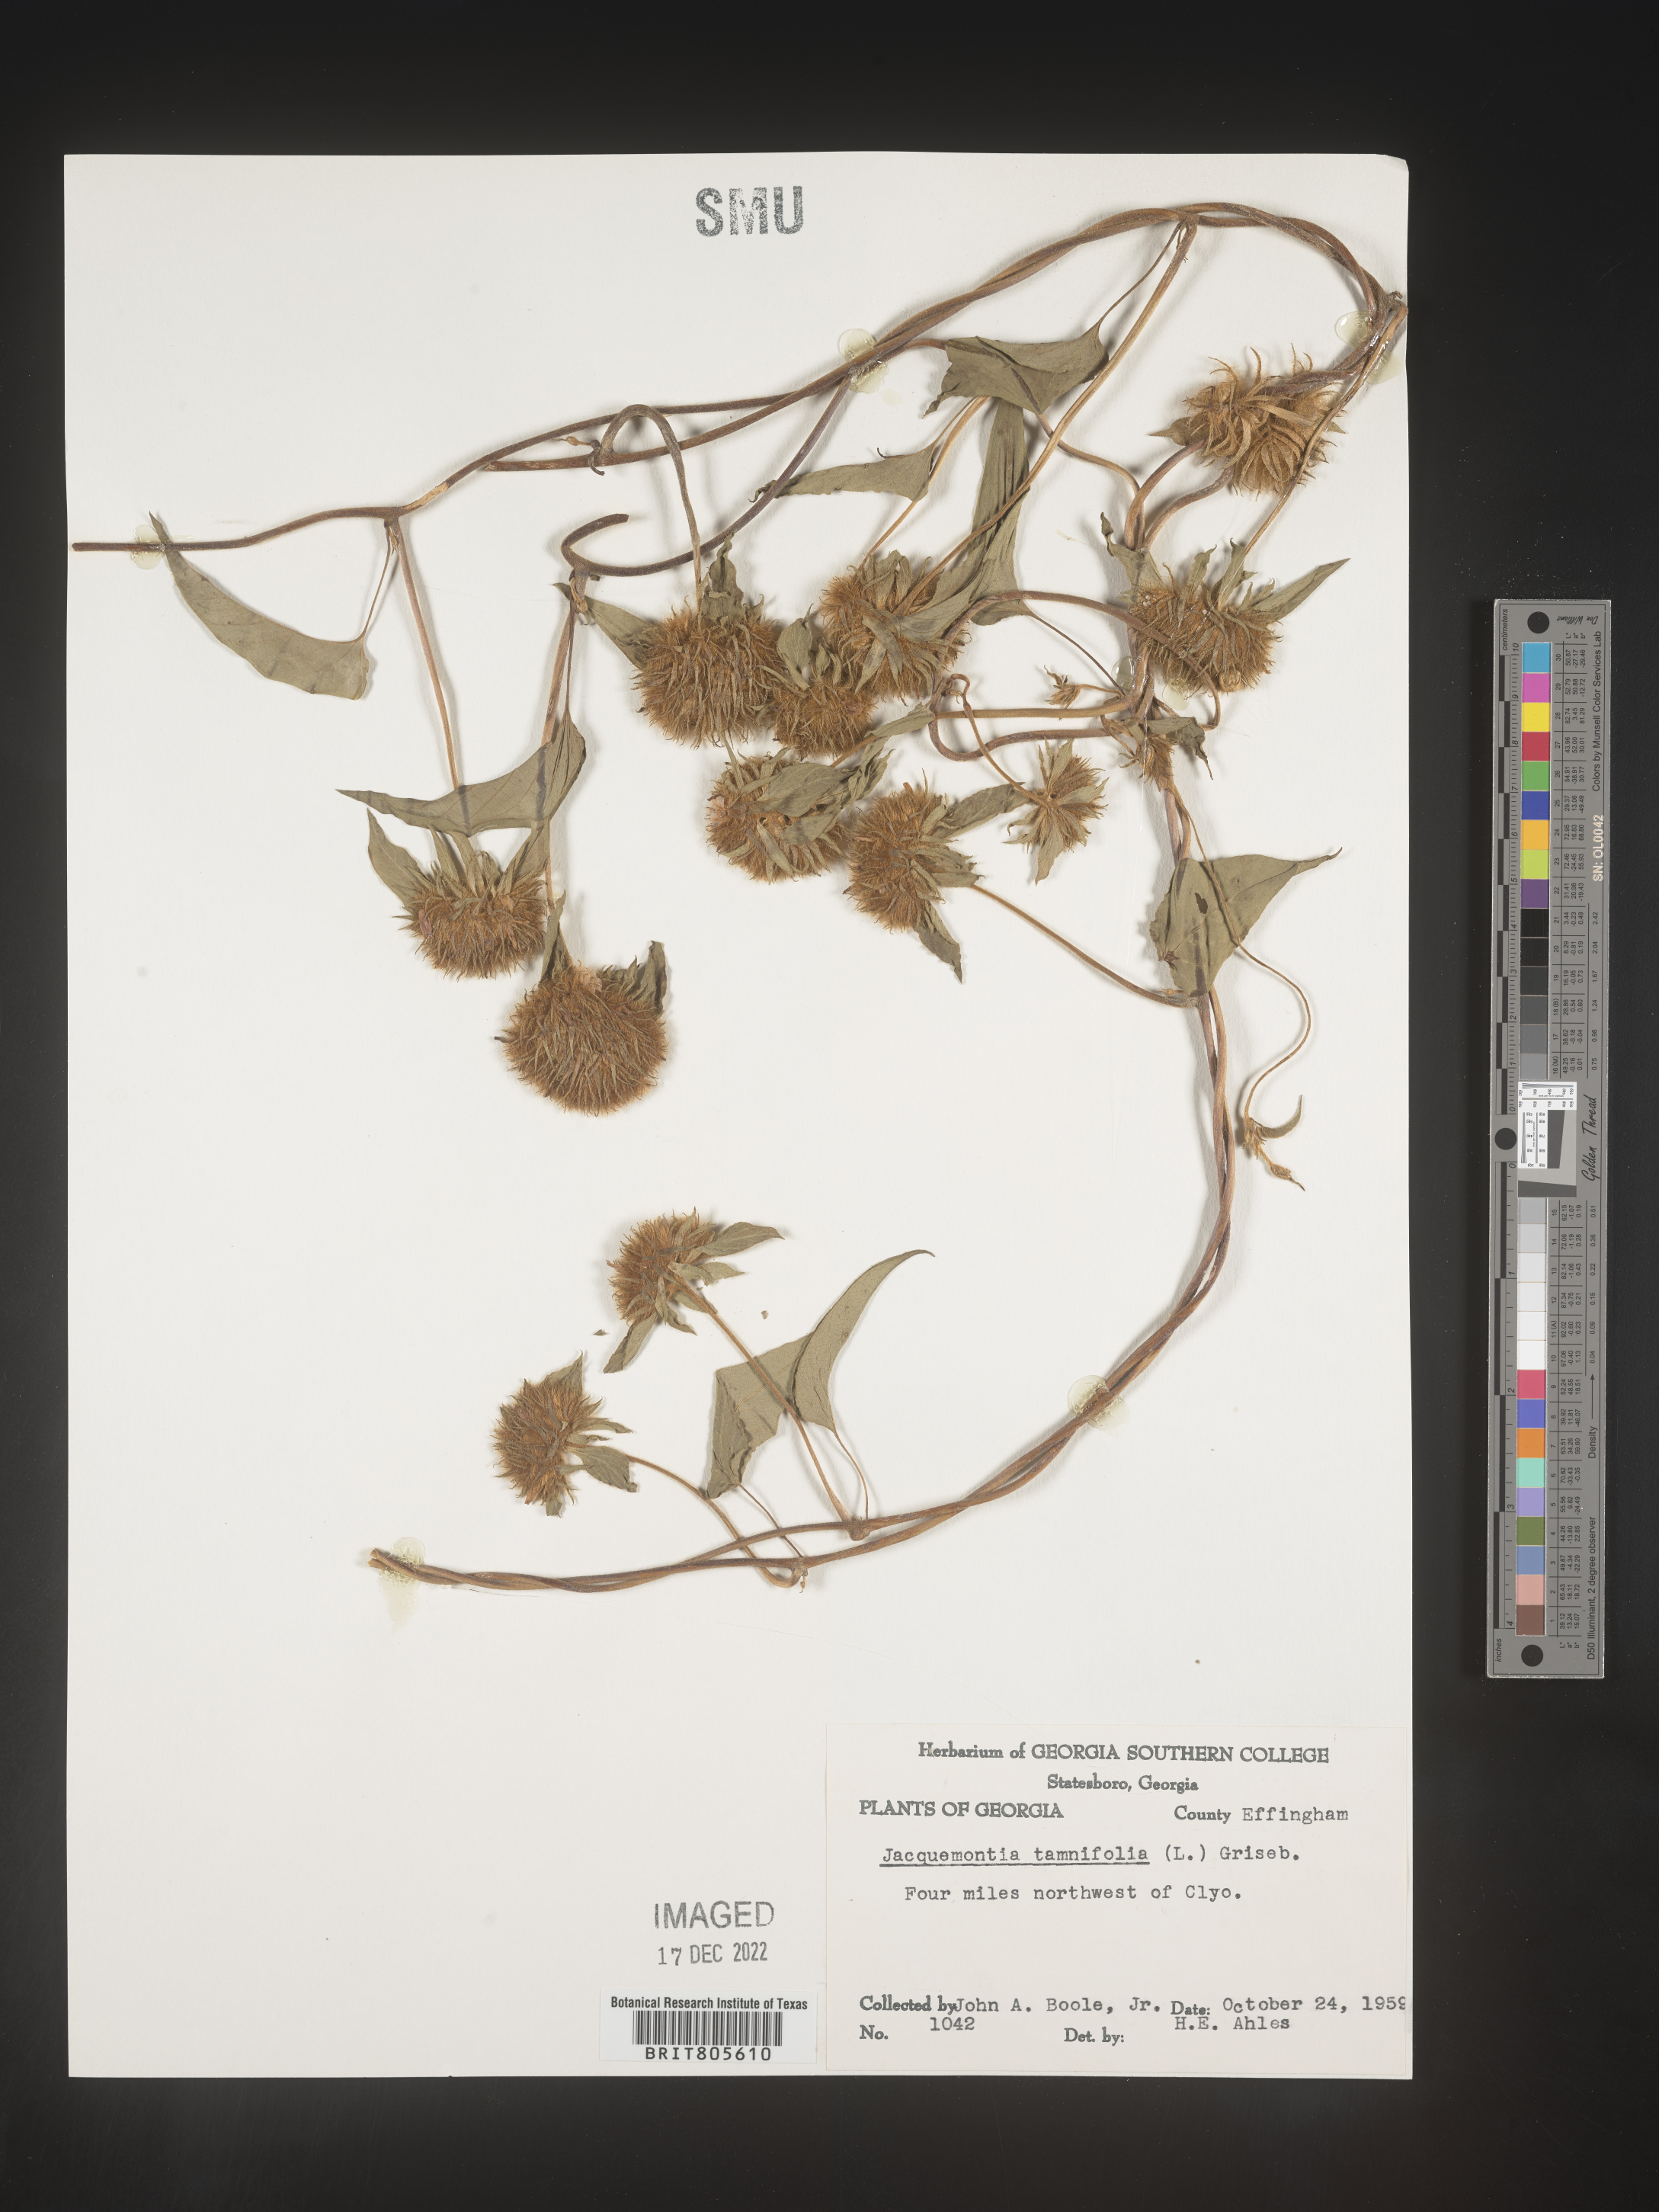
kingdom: Plantae
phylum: Tracheophyta
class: Magnoliopsida
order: Solanales
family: Convolvulaceae
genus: Jacquemontia
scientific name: Jacquemontia tamnifolia
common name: Hairy clustervine
